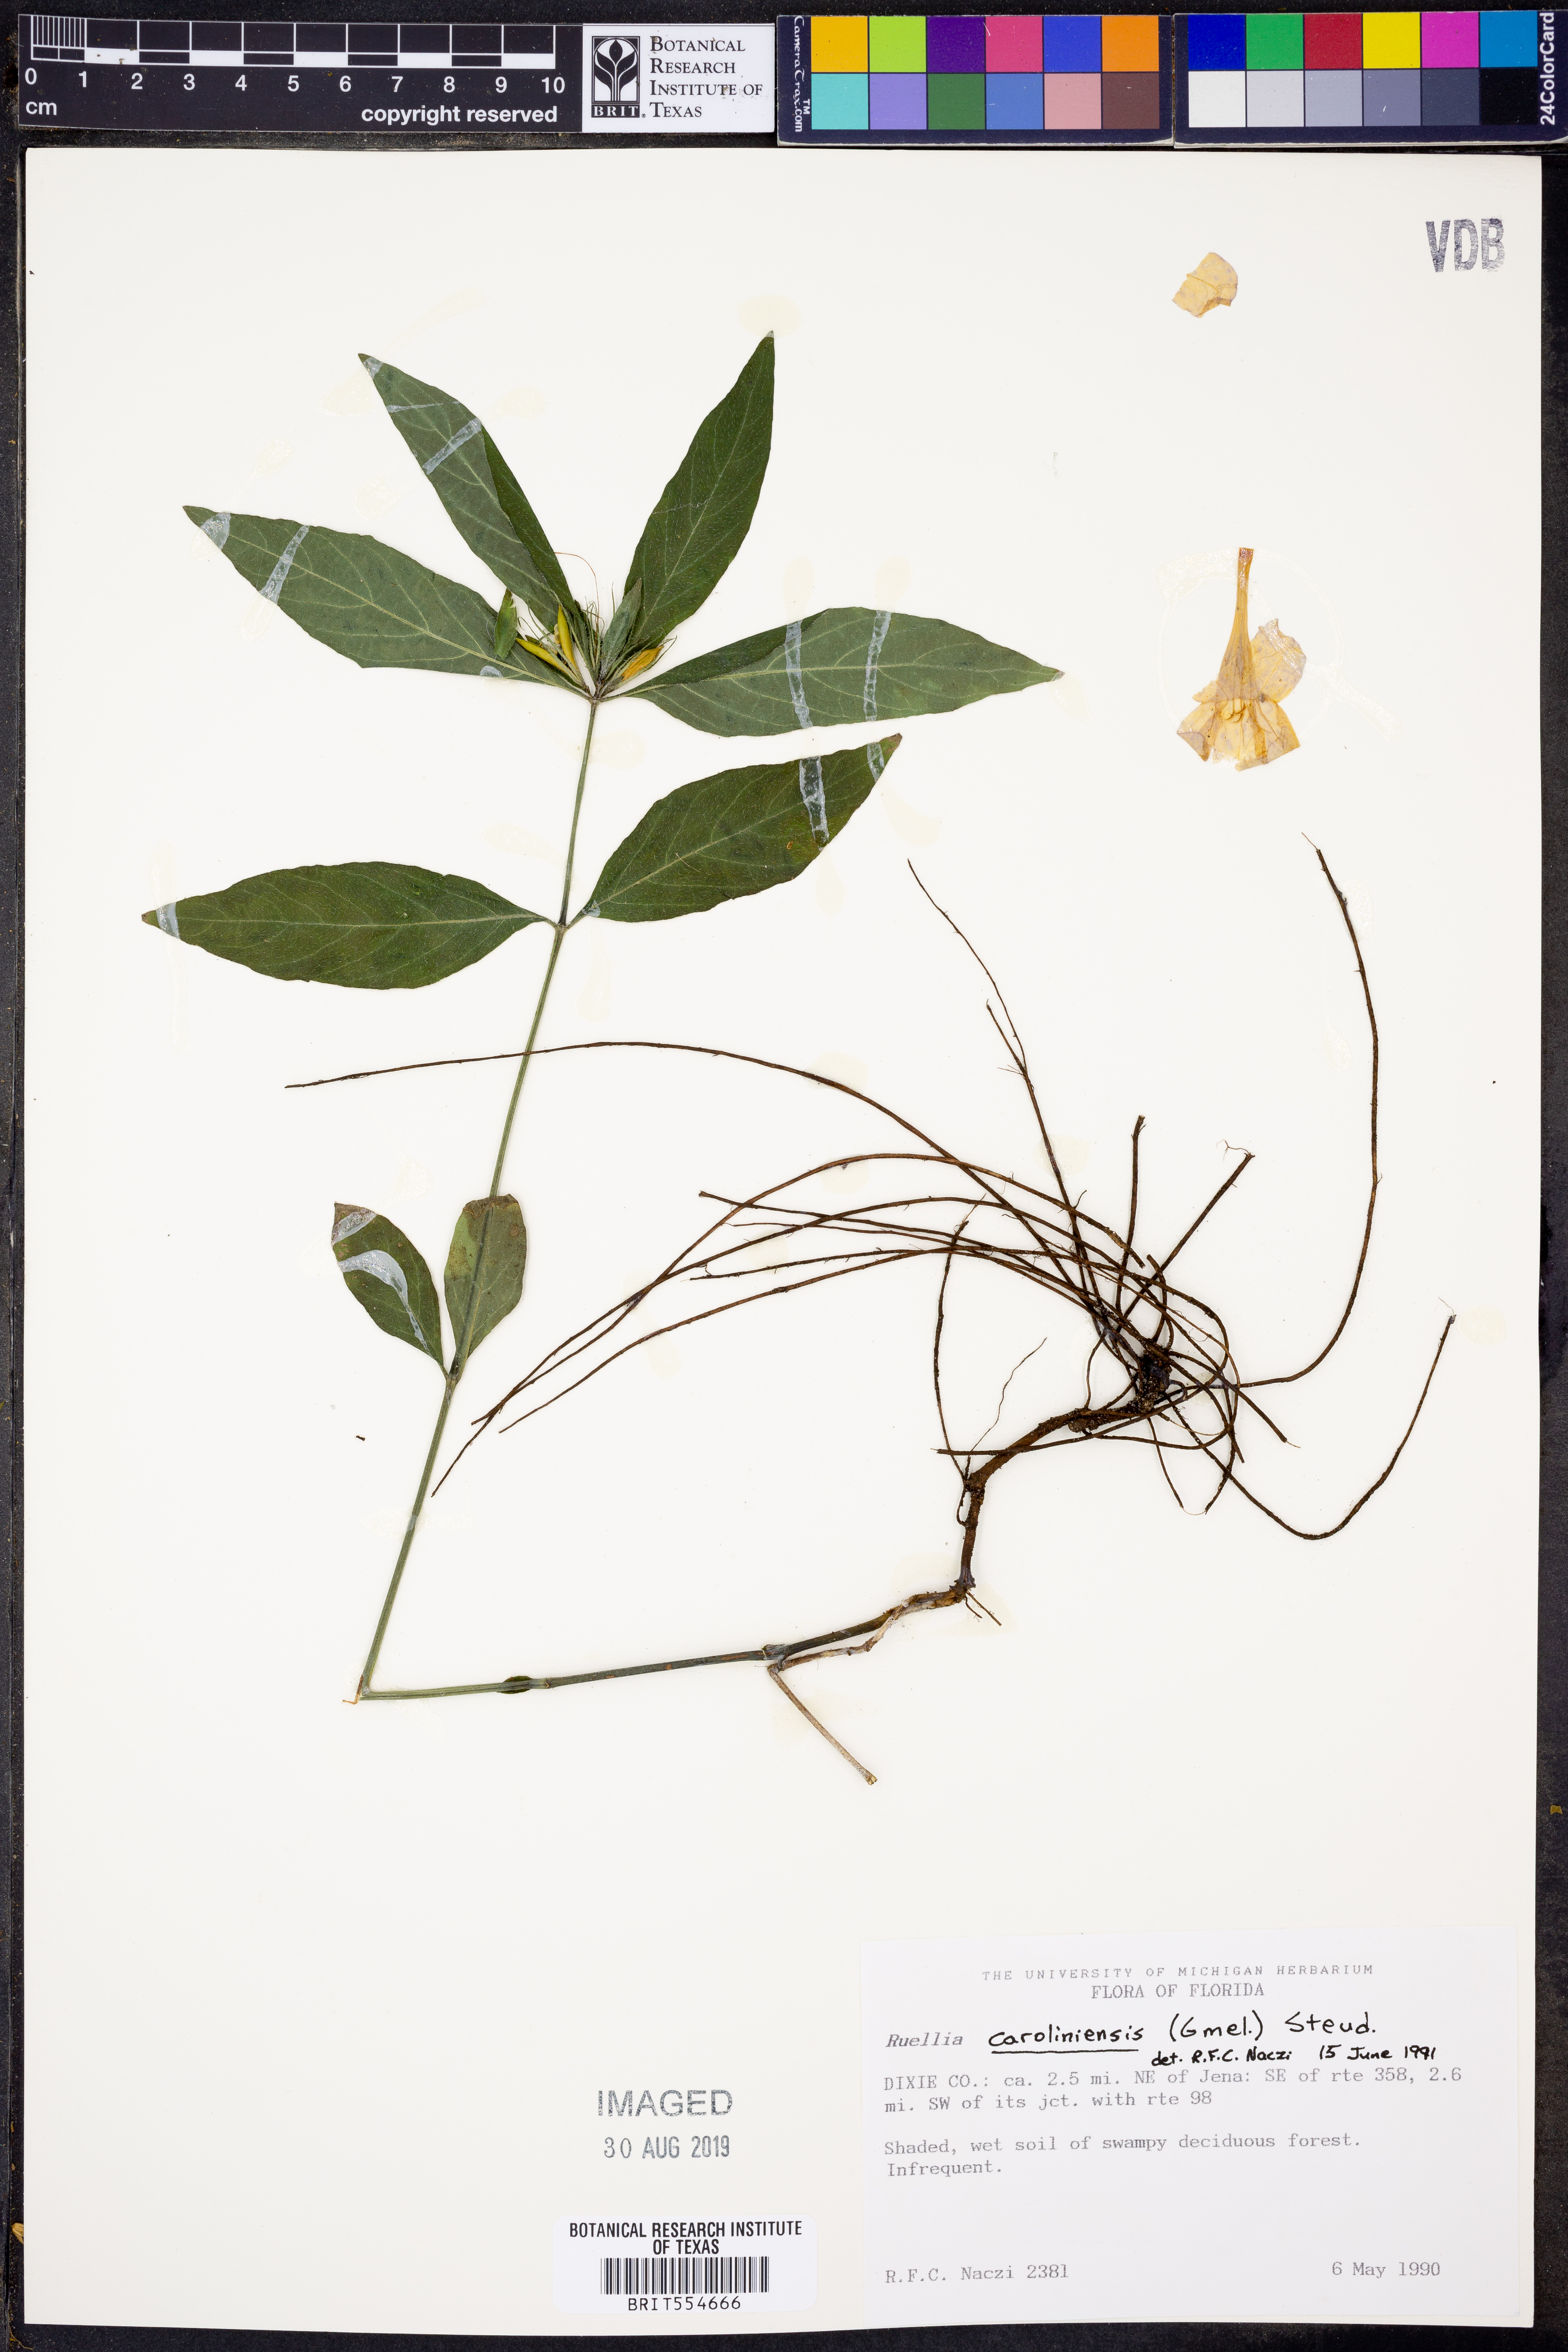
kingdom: Plantae
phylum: Tracheophyta
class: Magnoliopsida
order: Lamiales
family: Acanthaceae
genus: Ruellia
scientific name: Ruellia caroliniensis
